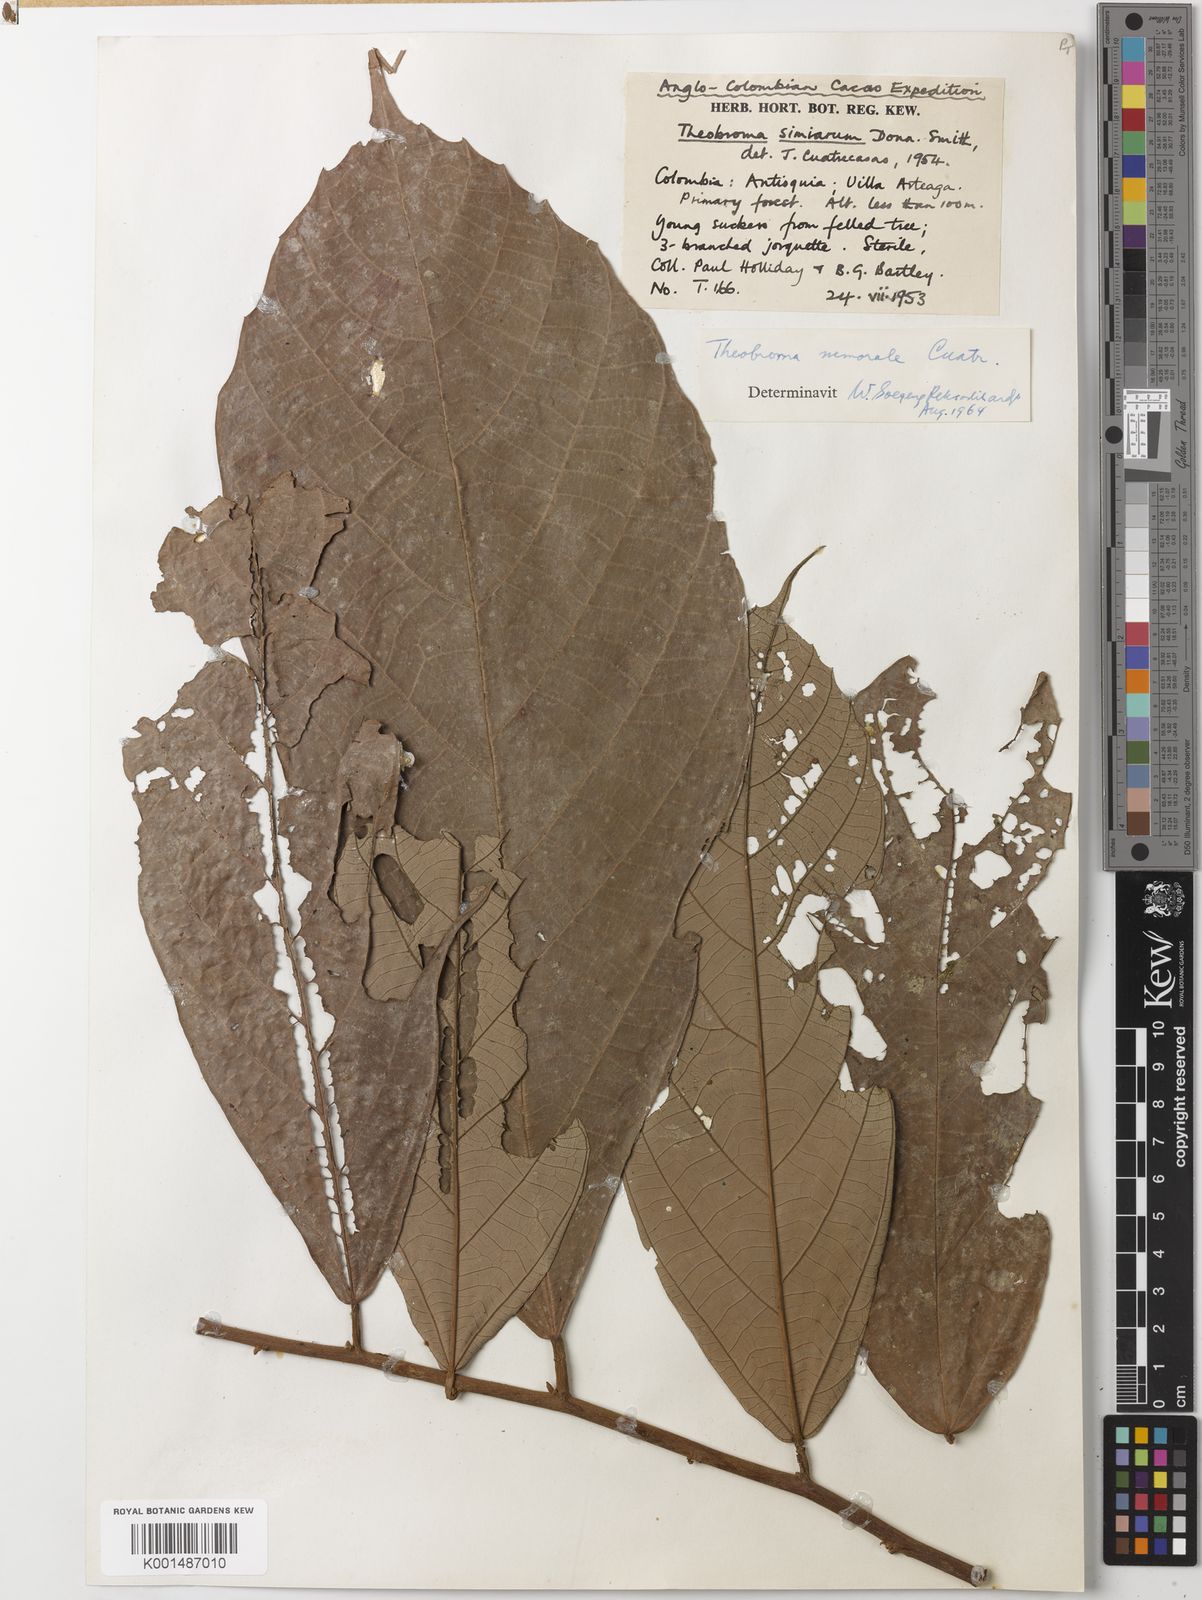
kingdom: Plantae
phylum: Tracheophyta
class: Magnoliopsida
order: Malvales
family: Malvaceae
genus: Theobroma
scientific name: Theobroma hylaeum
